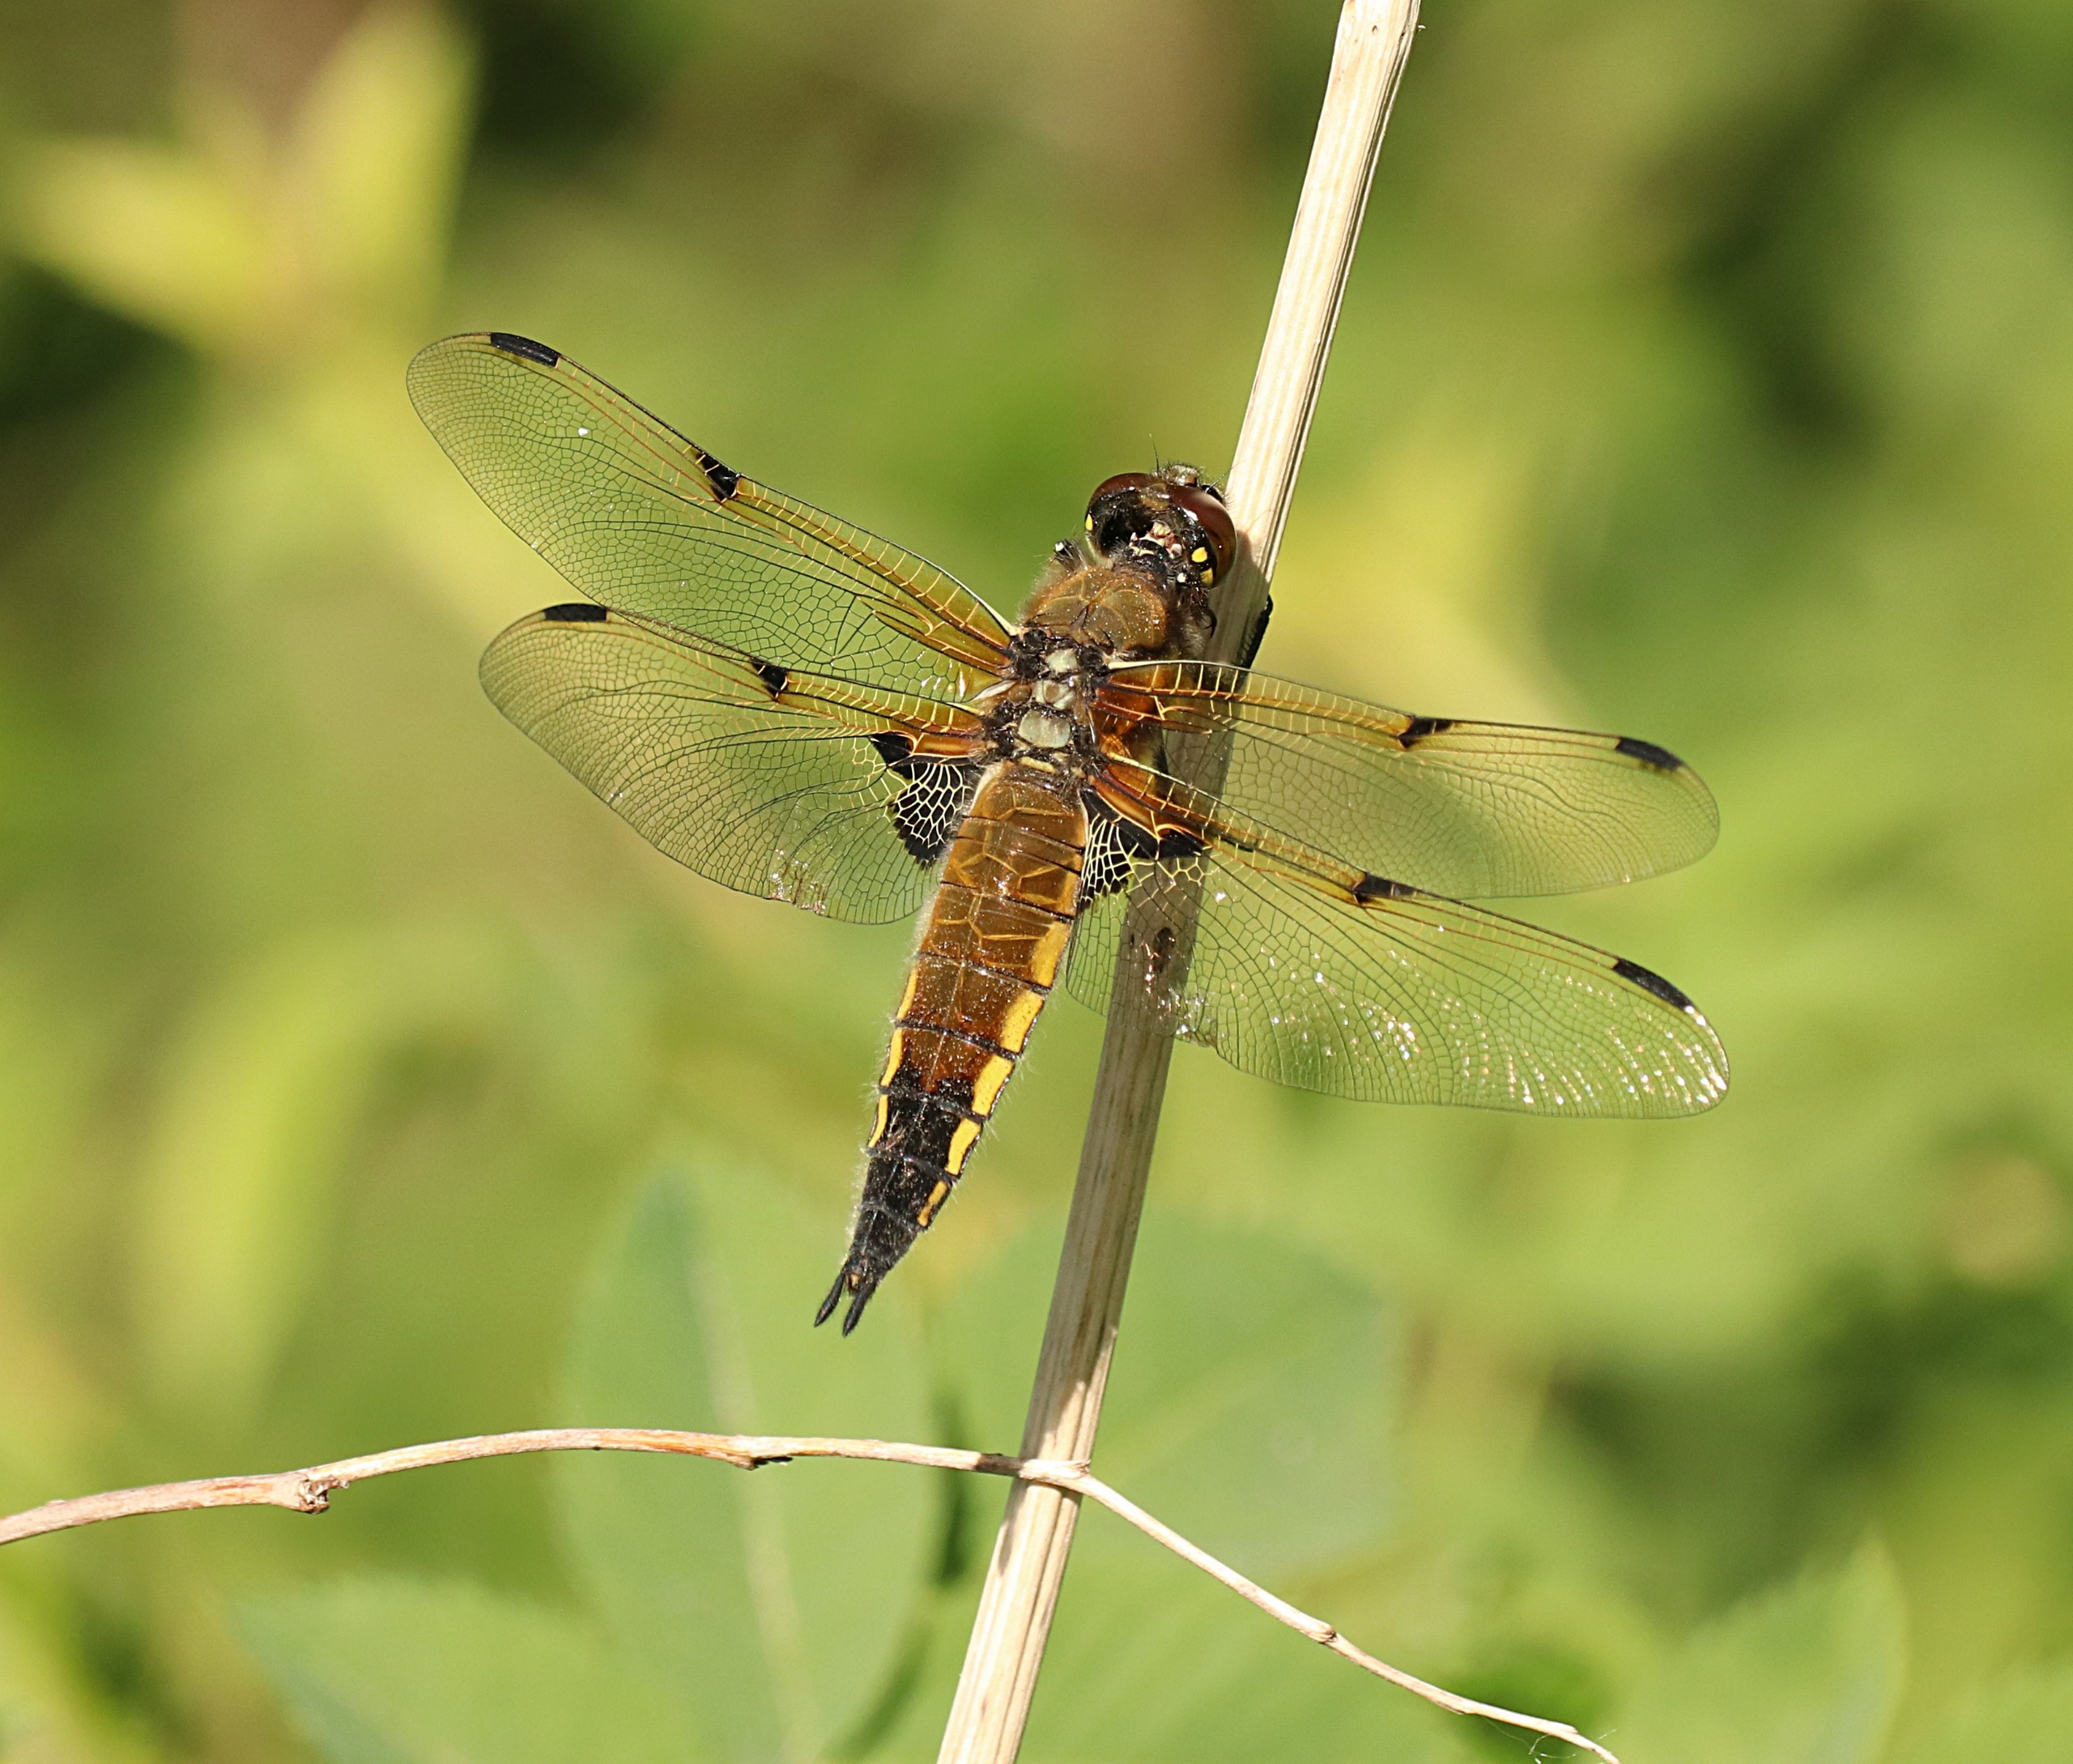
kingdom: Animalia
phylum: Arthropoda
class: Insecta
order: Odonata
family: Libellulidae
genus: Libellula
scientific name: Libellula quadrimaculata
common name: Fireplettet libel
